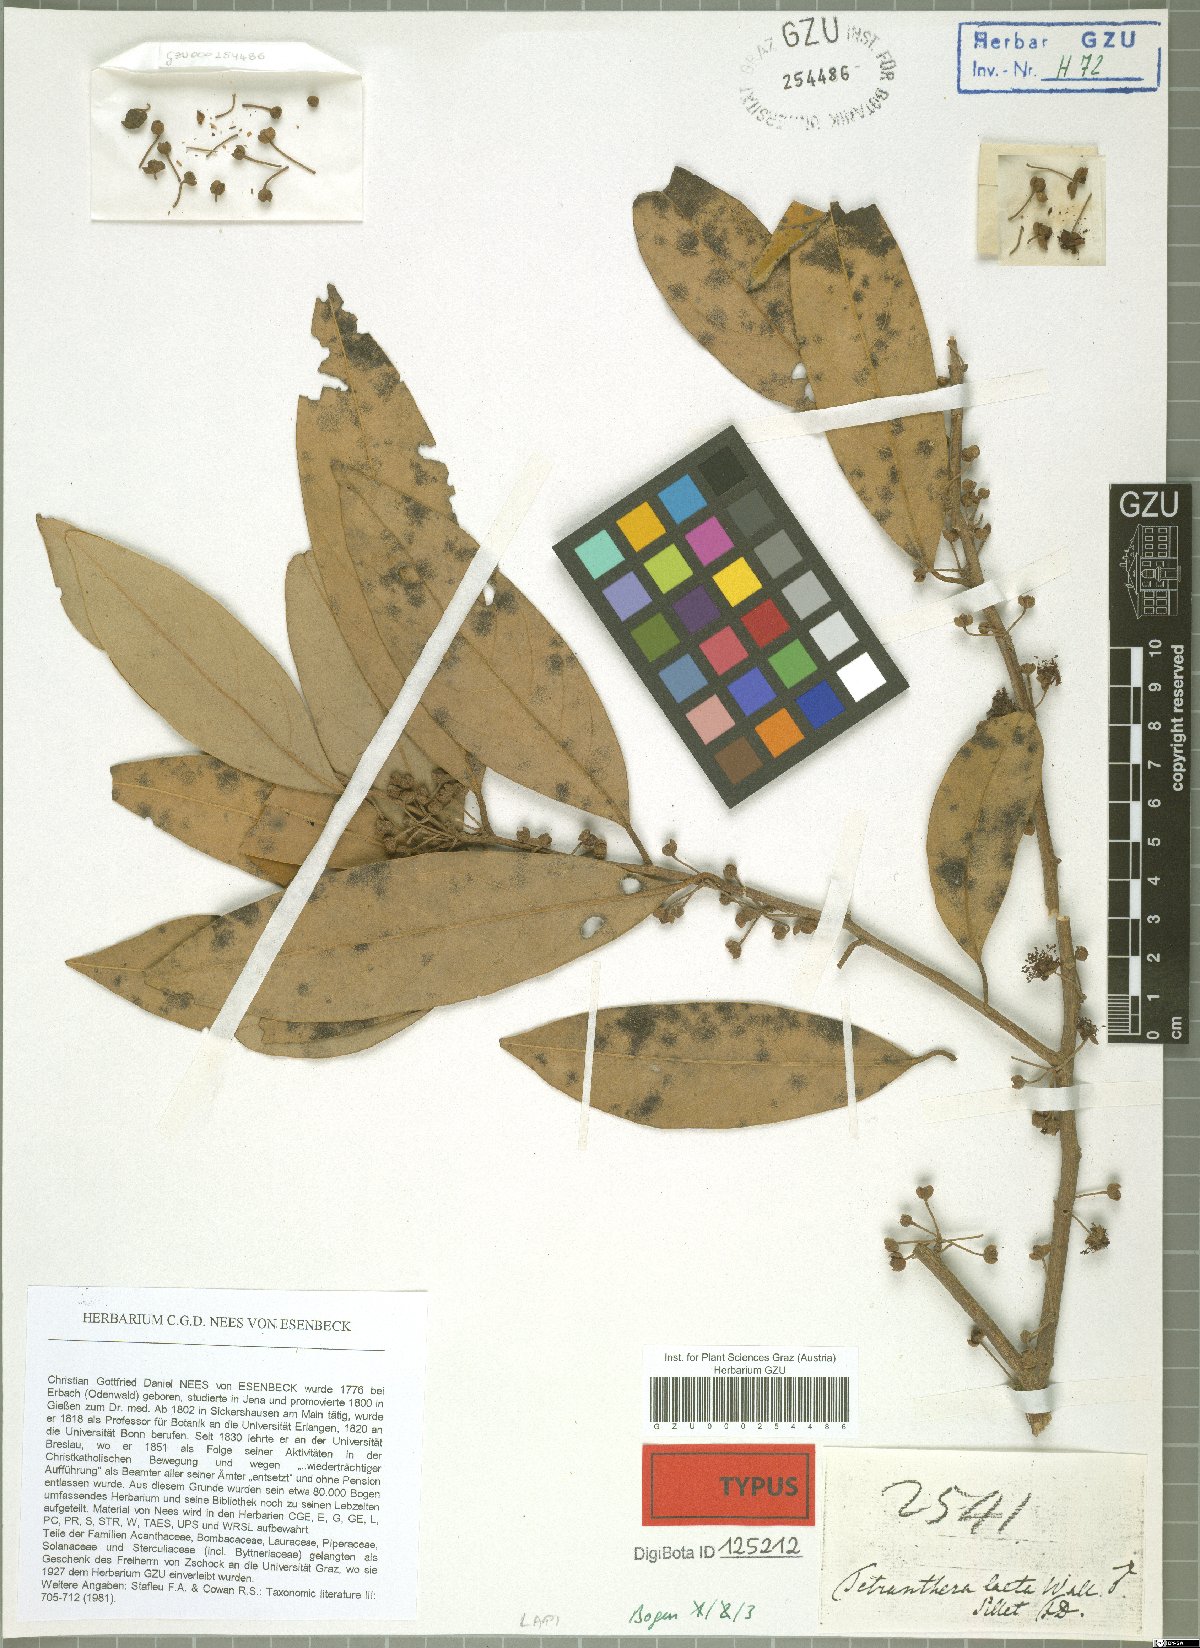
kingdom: Plantae
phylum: Tracheophyta
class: Magnoliopsida
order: Laurales
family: Lauraceae
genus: Litsea
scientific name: Litsea laeta
